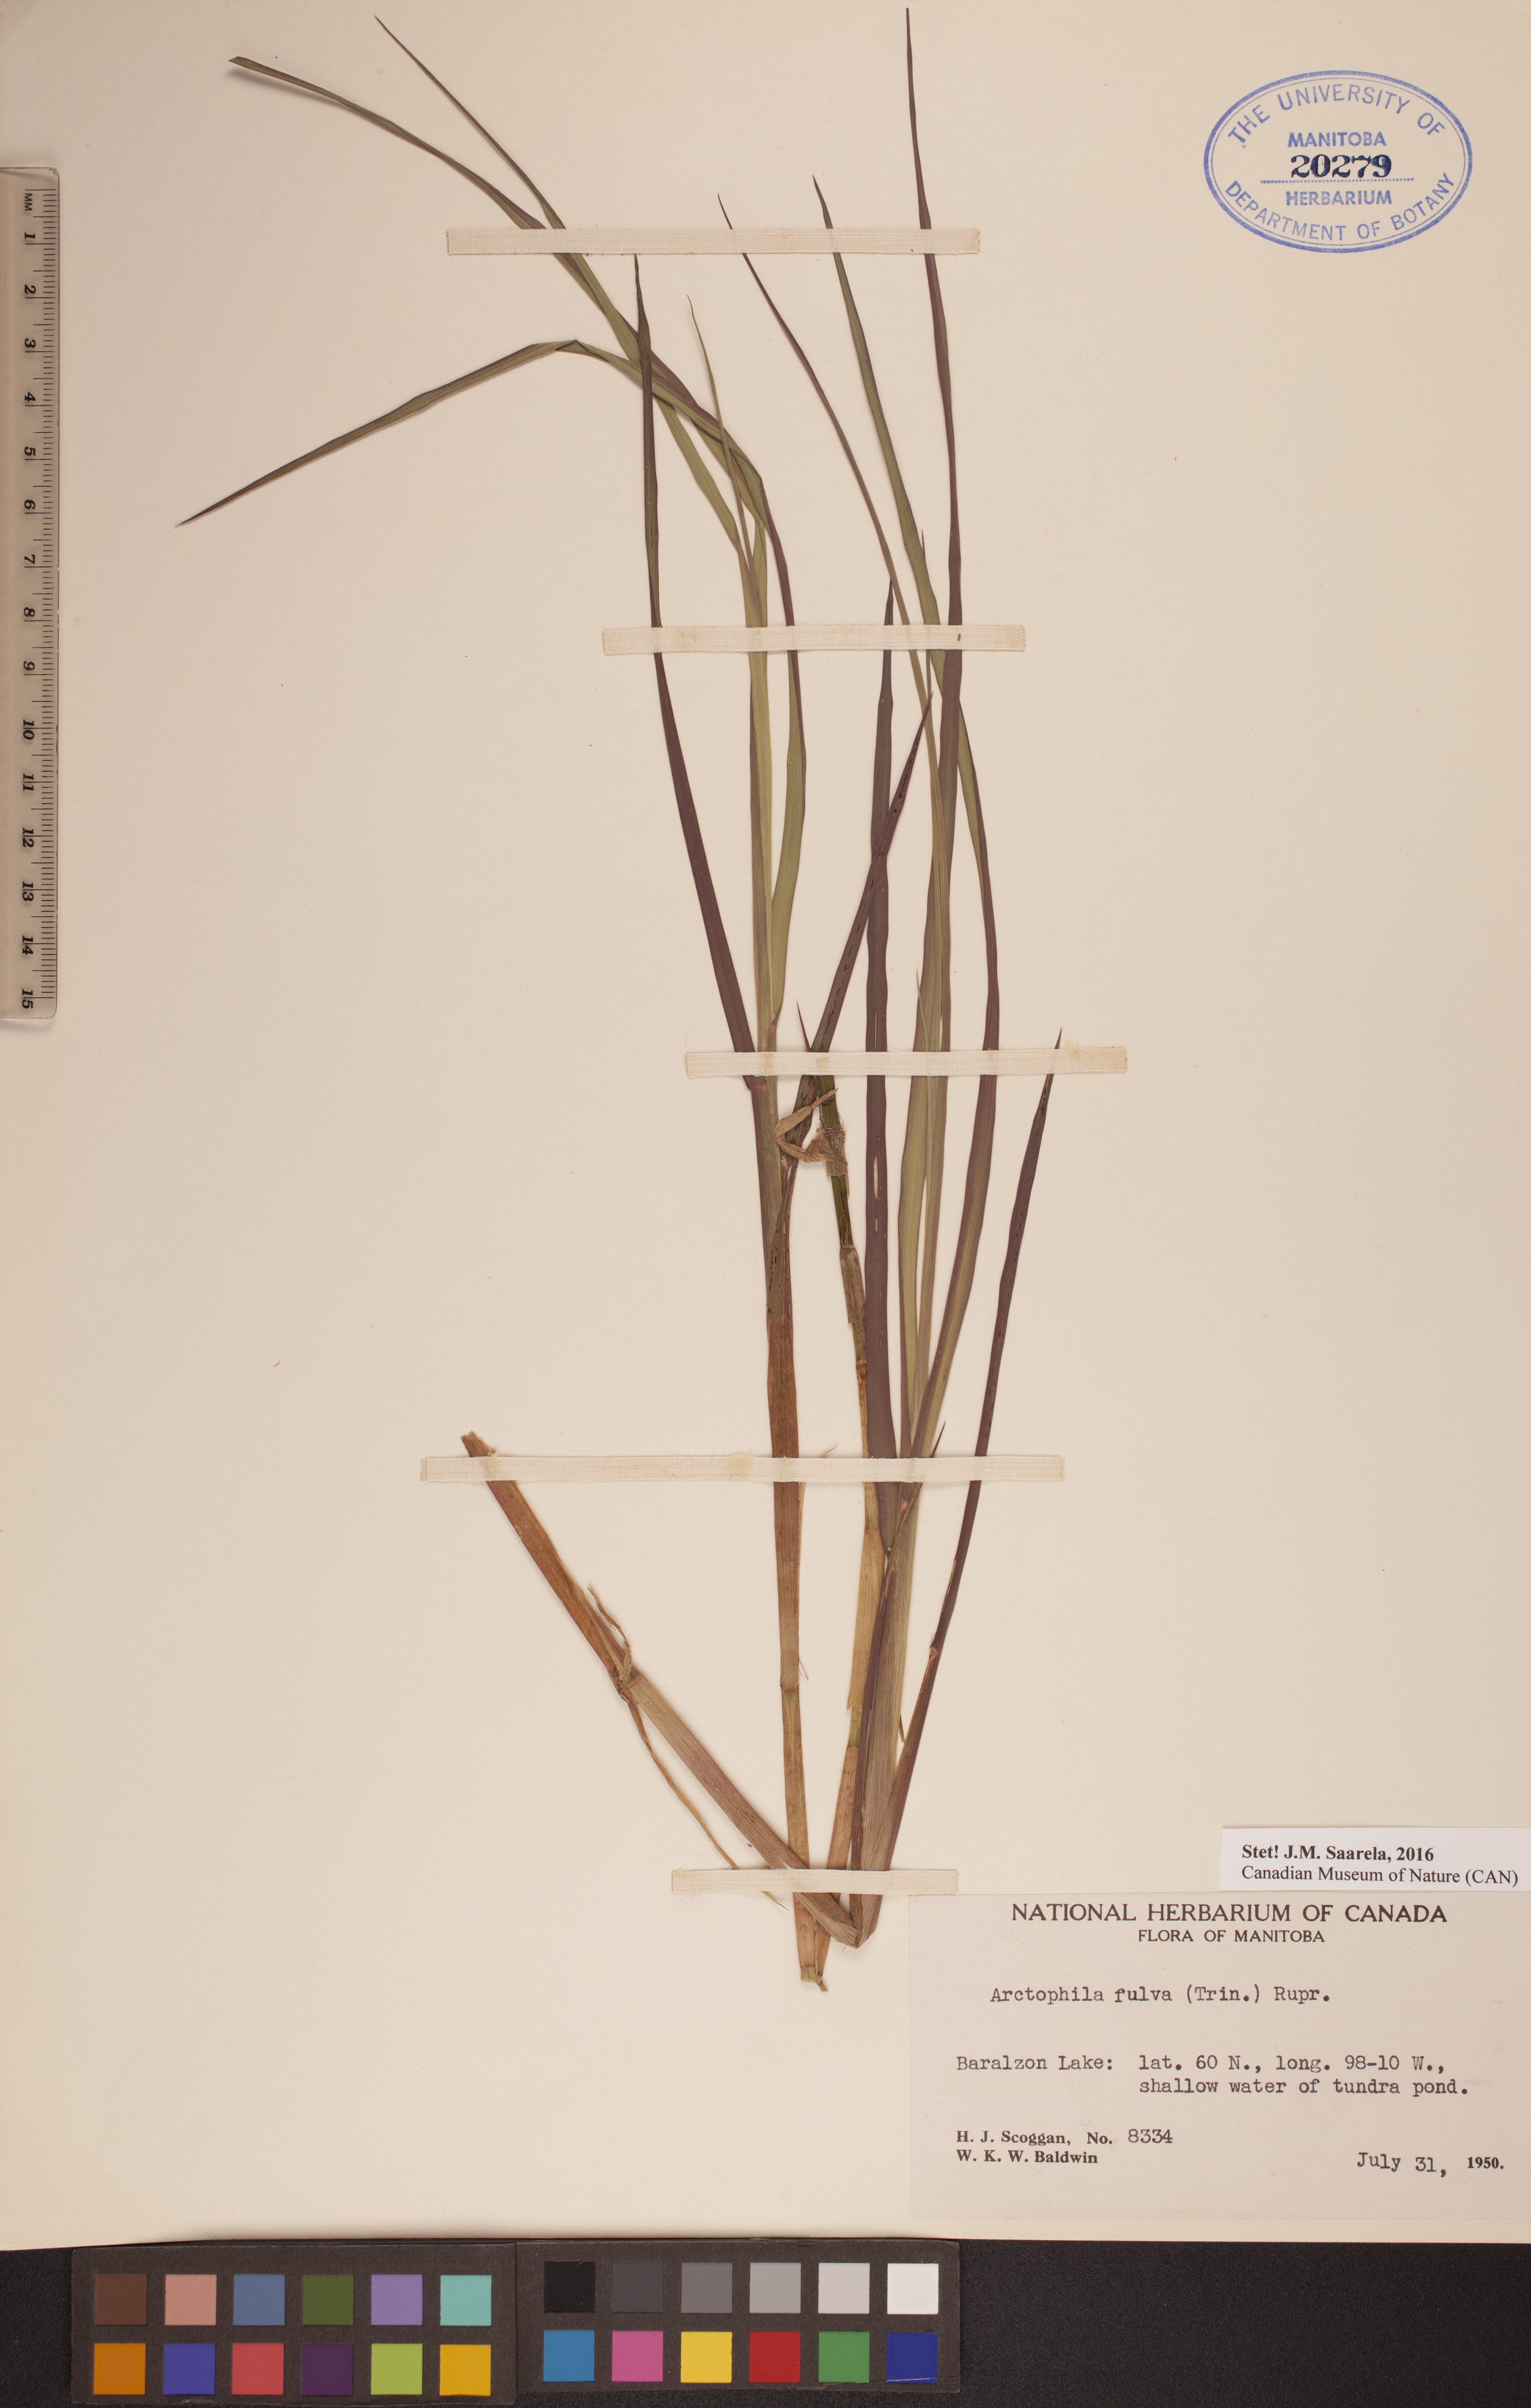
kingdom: Plantae
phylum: Tracheophyta
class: Liliopsida
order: Poales
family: Poaceae
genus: Dupontia
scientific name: Dupontia fulva
